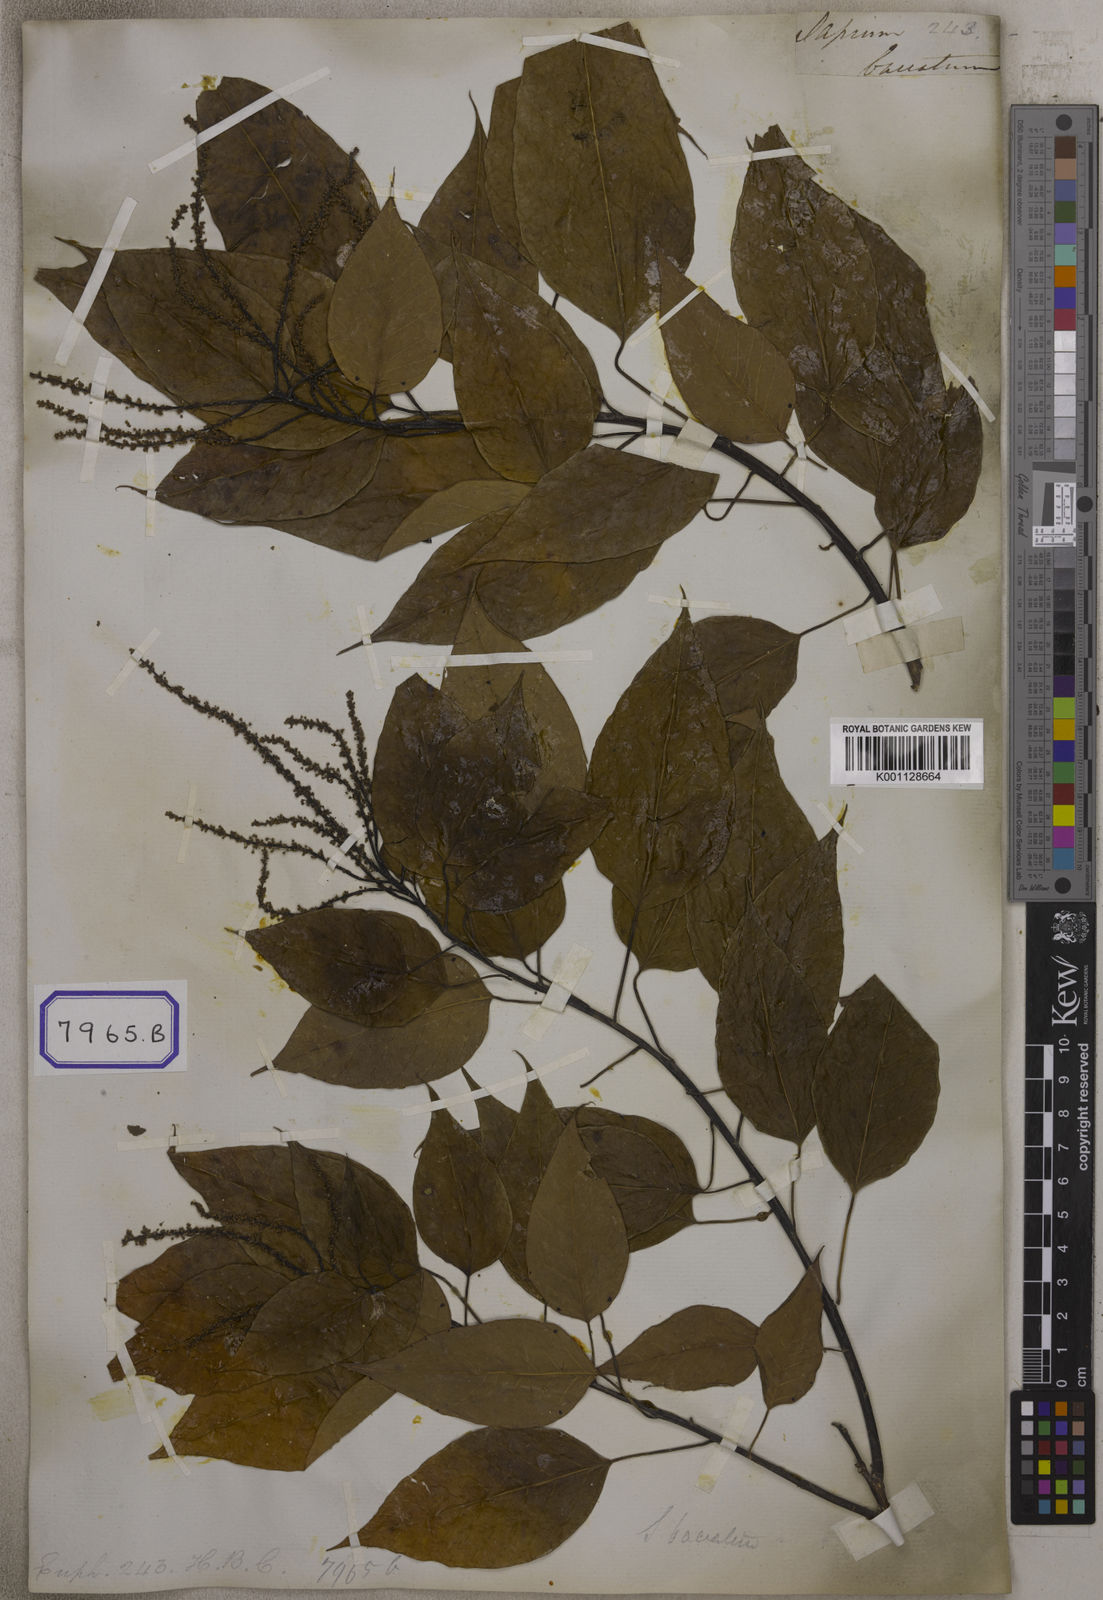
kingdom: Plantae
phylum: Tracheophyta
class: Magnoliopsida
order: Malpighiales
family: Euphorbiaceae
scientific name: Euphorbiaceae
